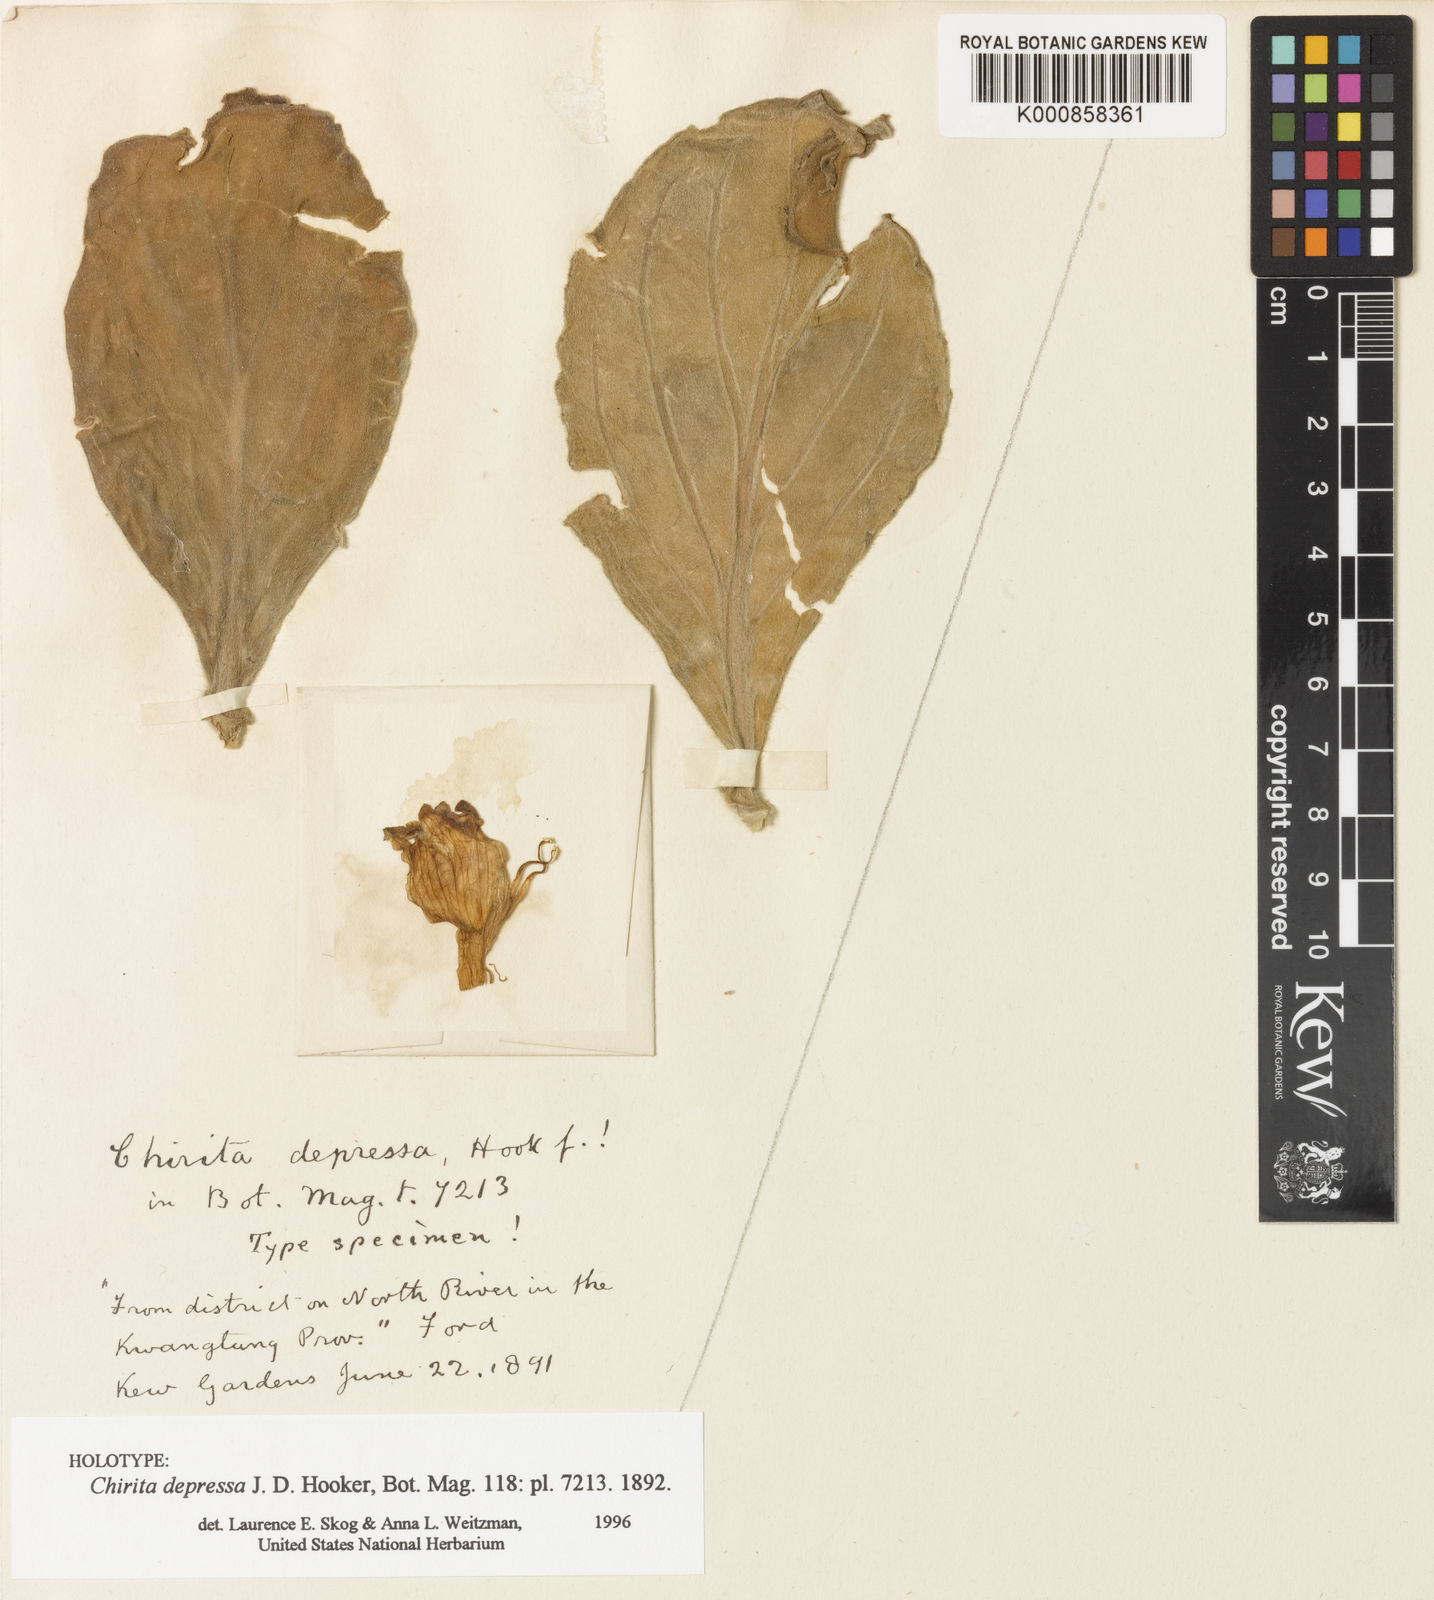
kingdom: Plantae
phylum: Tracheophyta
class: Magnoliopsida
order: Lamiales
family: Gesneriaceae
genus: Primulina
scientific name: Primulina depressa
